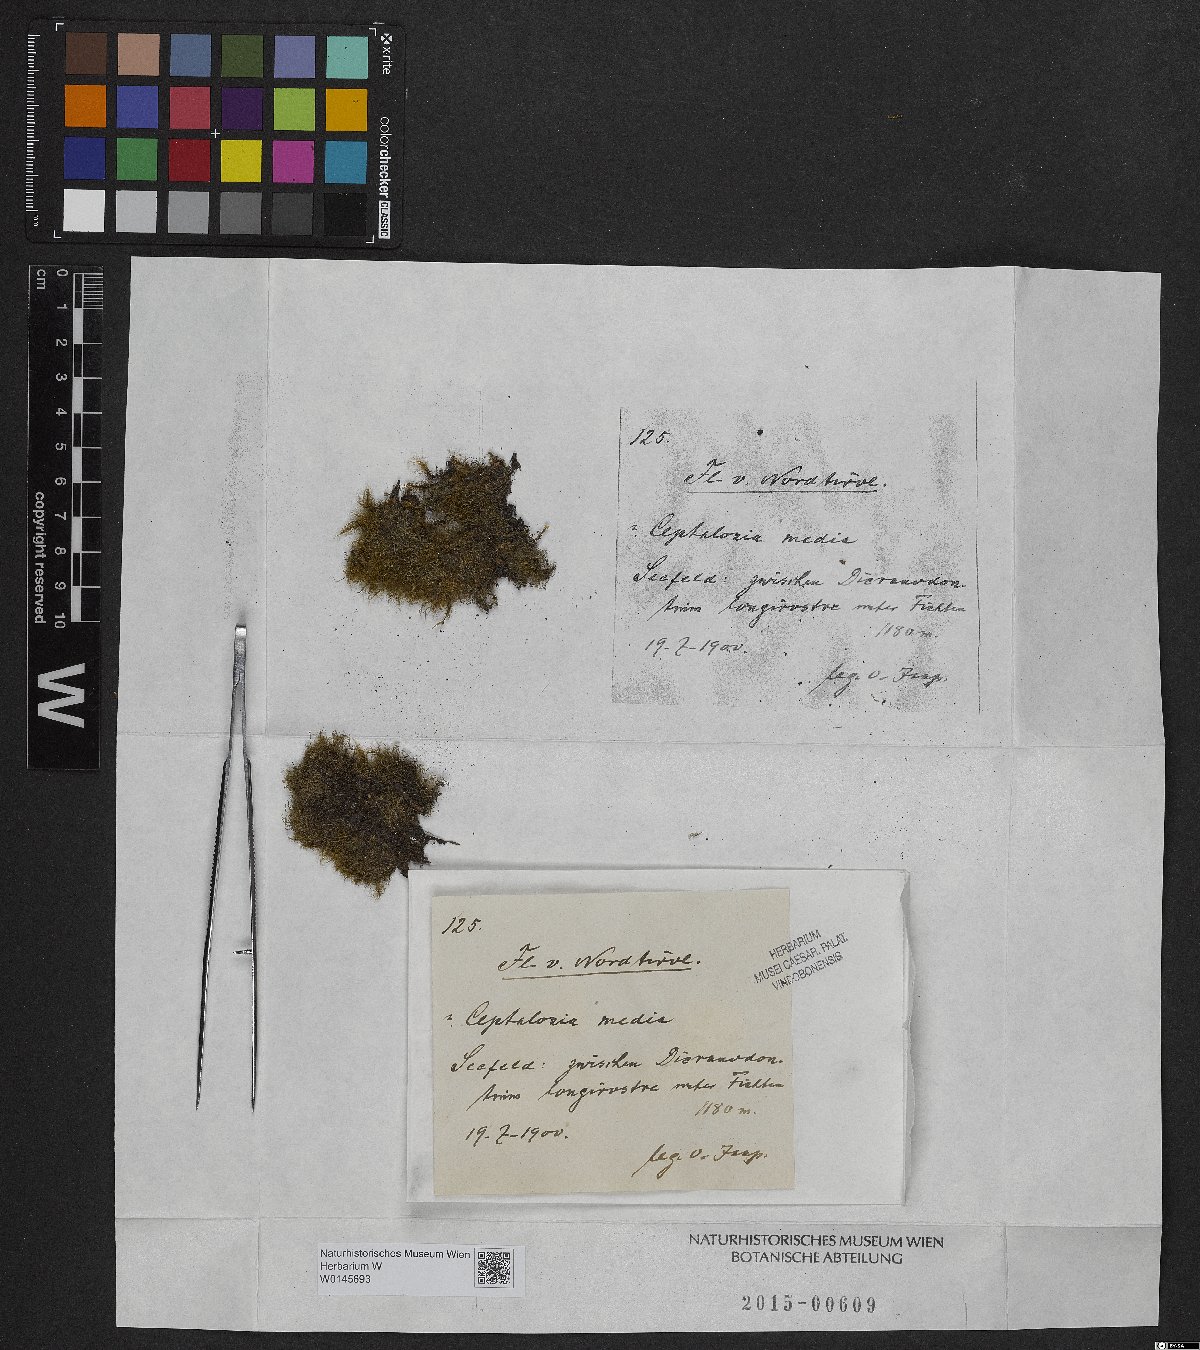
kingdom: Plantae
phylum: Marchantiophyta
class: Jungermanniopsida
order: Jungermanniales
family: Cephaloziaceae
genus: Fuscocephaloziopsis
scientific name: Fuscocephaloziopsis lunulifolia
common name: Moon-leaved pincerwort
